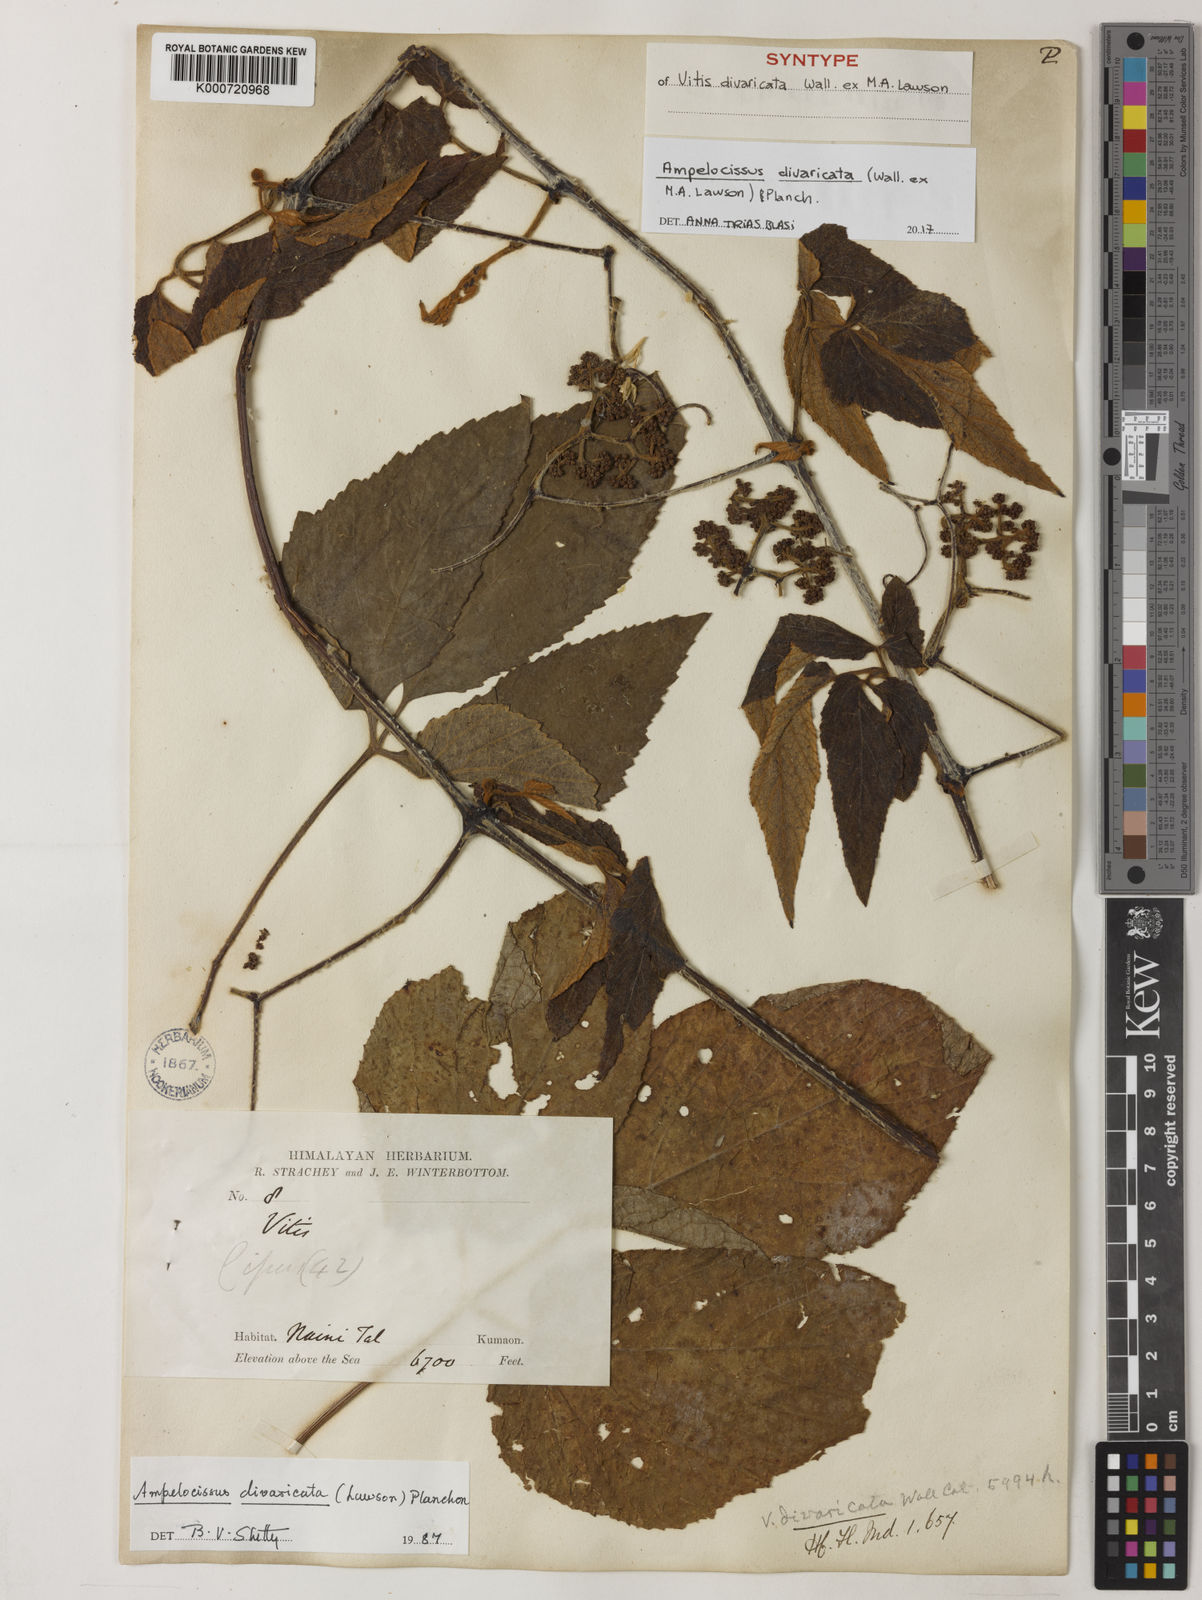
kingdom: Plantae
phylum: Tracheophyta
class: Magnoliopsida
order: Vitales
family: Vitaceae
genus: Ampelocissus
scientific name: Ampelocissus divaricata
